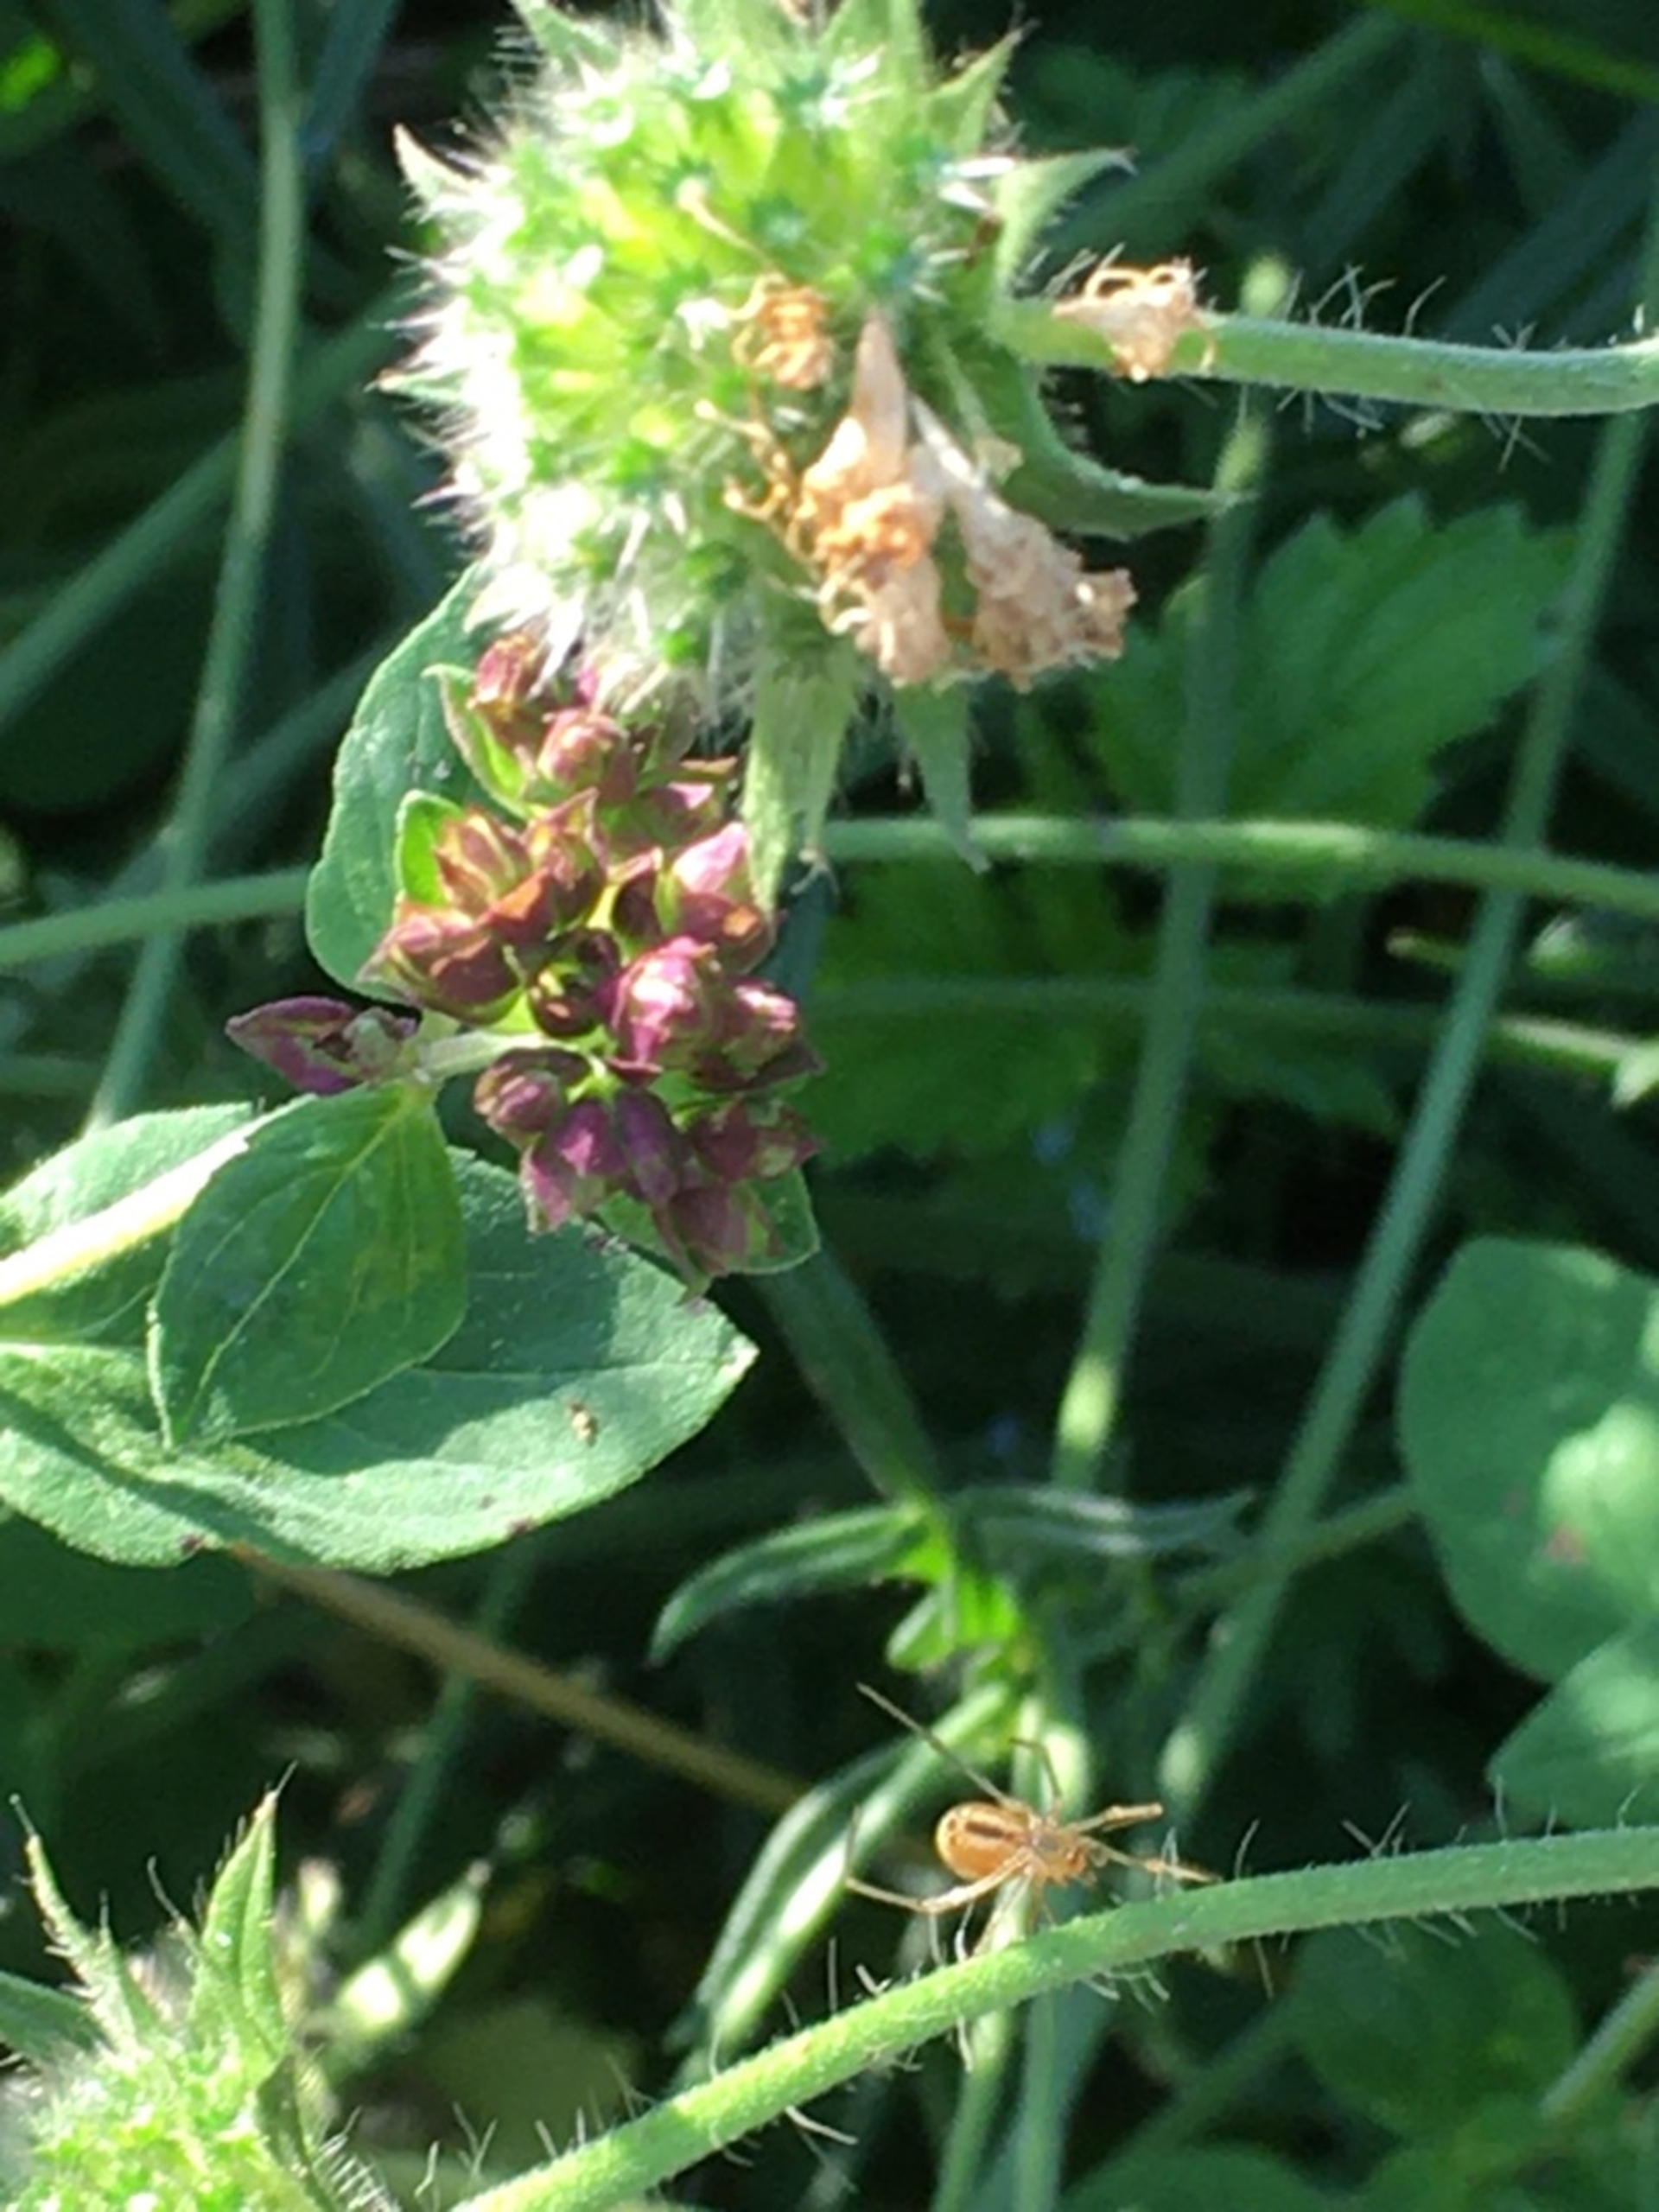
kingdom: Animalia
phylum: Arthropoda
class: Arachnida
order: Araneae
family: Theridiidae
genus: Enoplognatha
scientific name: Enoplognatha
